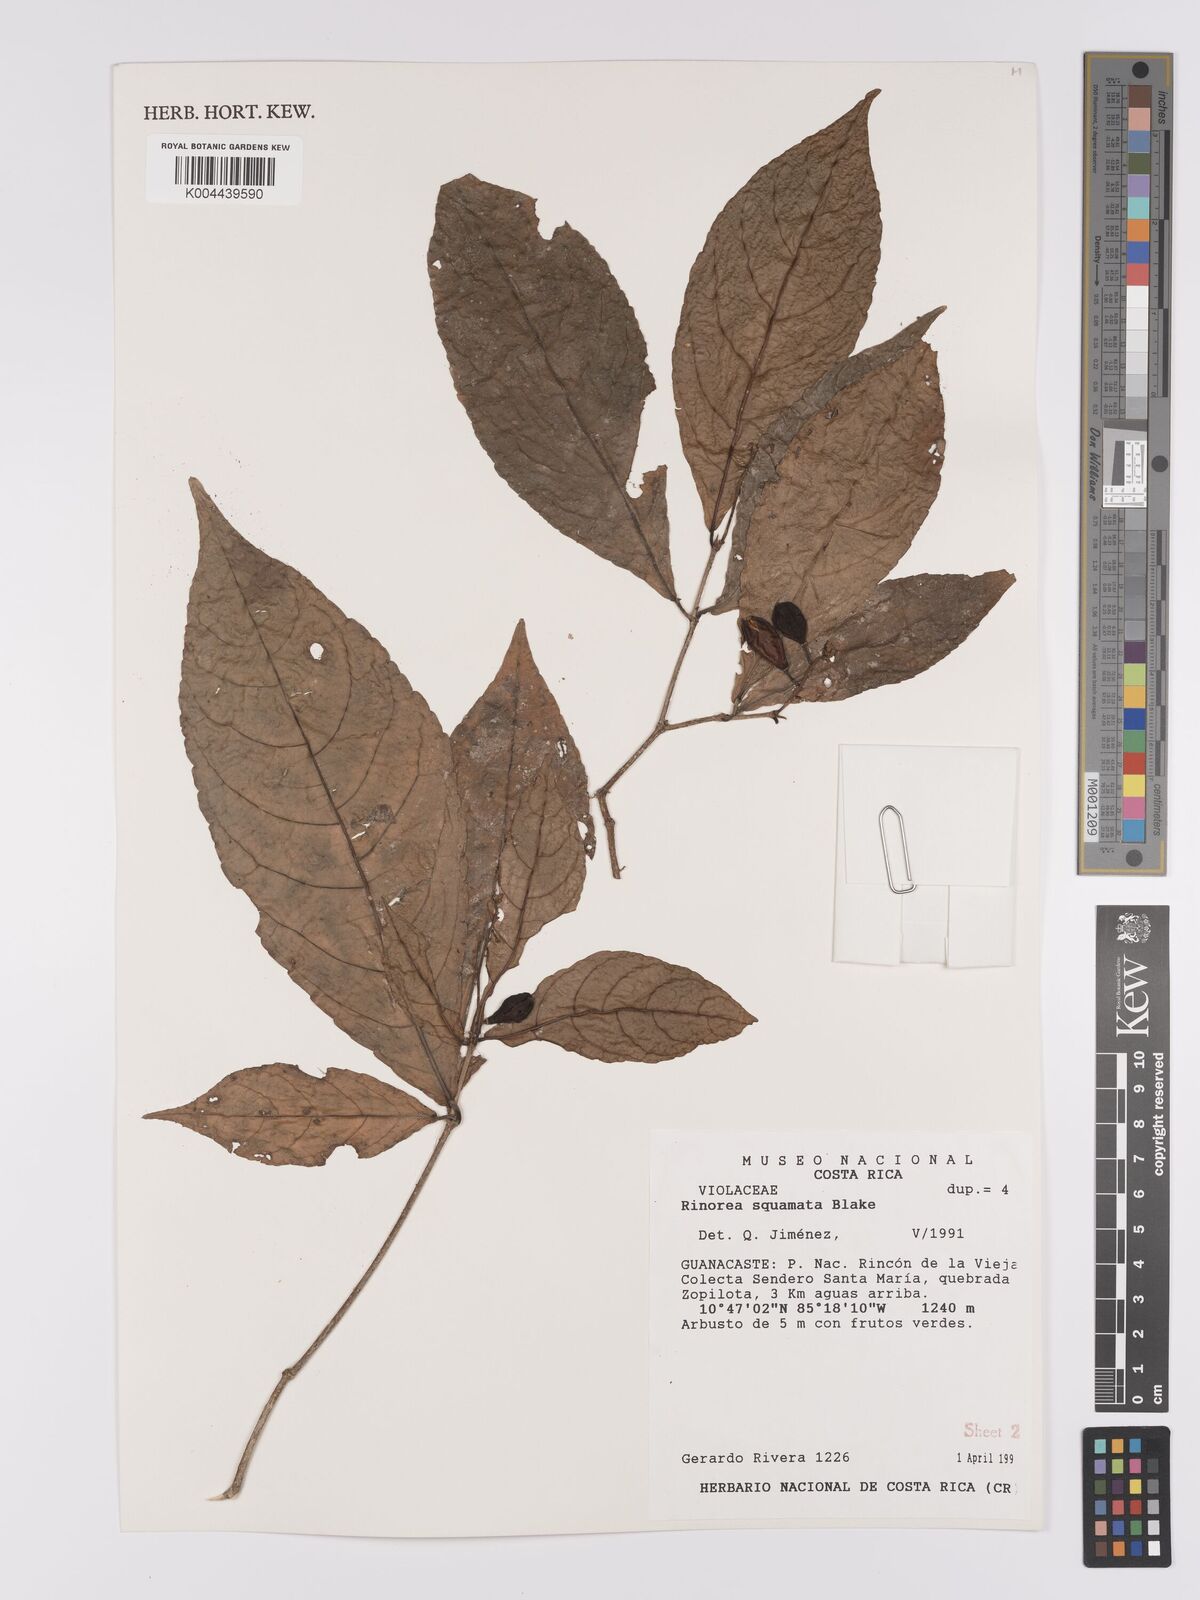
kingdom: Plantae
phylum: Tracheophyta
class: Magnoliopsida
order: Malpighiales
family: Violaceae
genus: Rinorea
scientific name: Rinorea squamata
